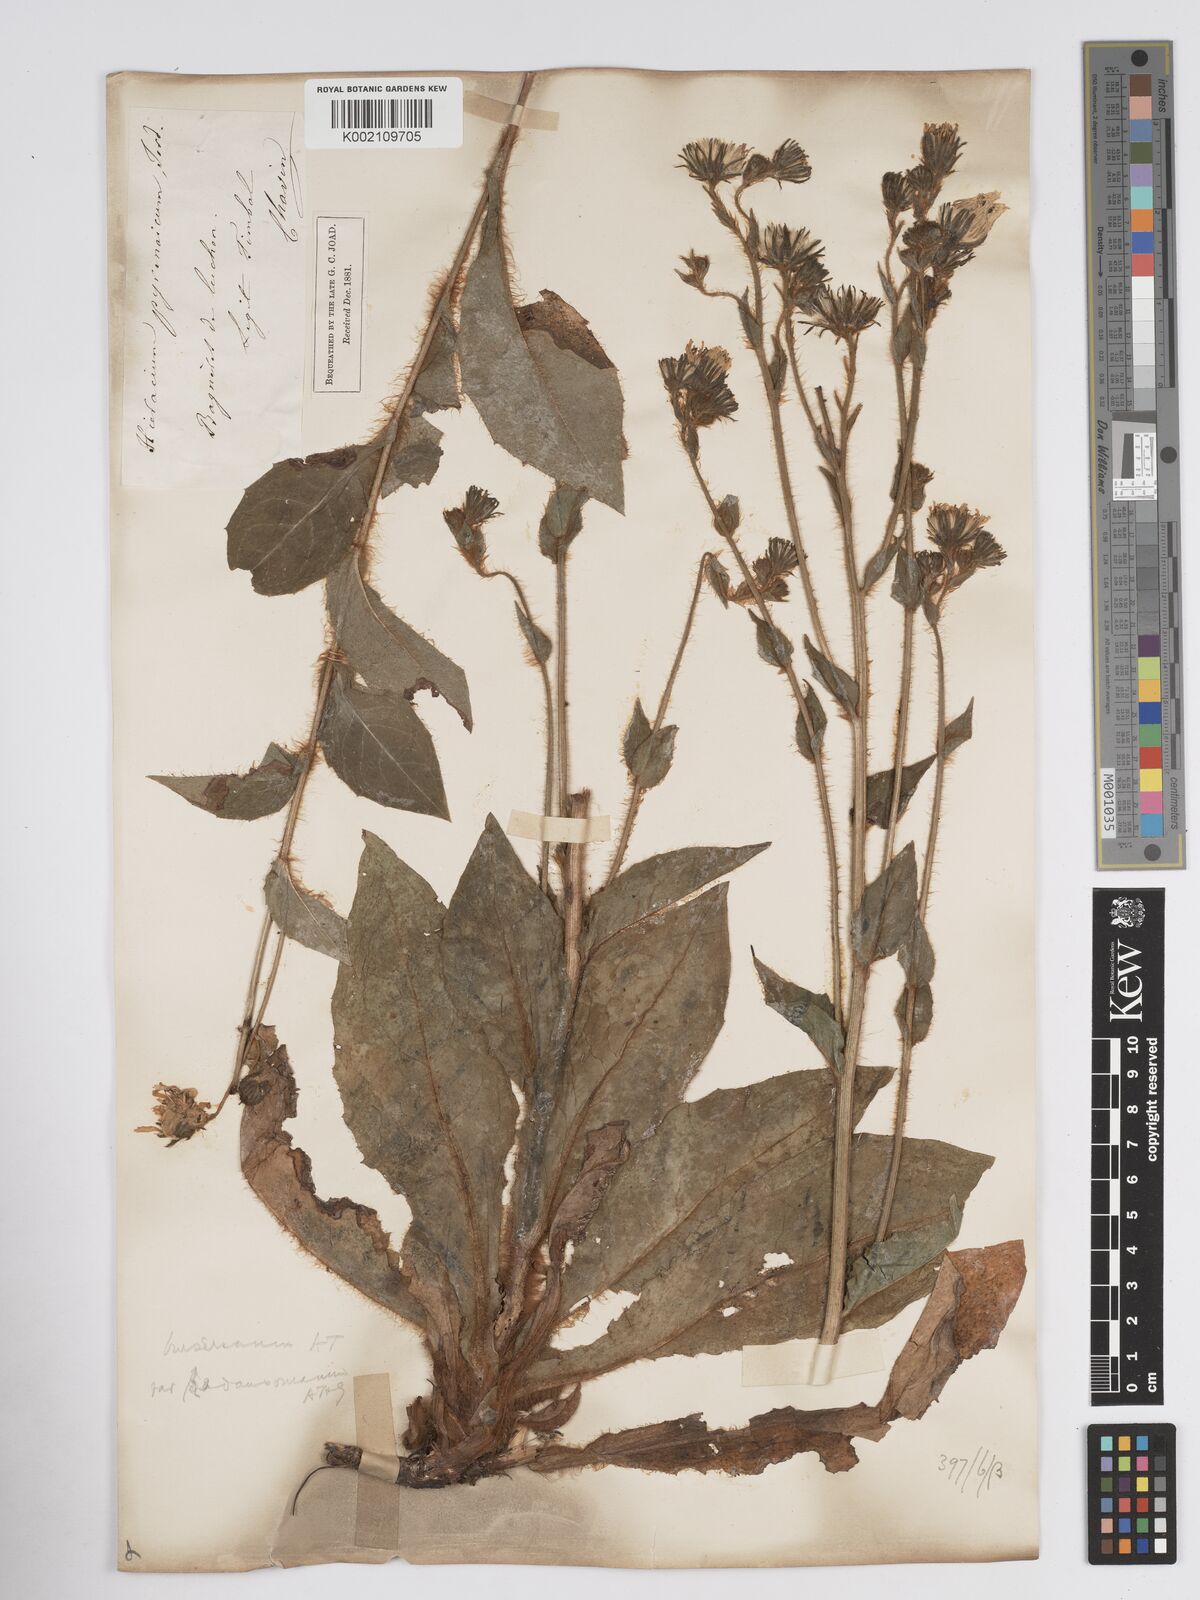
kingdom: Plantae
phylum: Tracheophyta
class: Magnoliopsida
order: Asterales
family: Asteraceae
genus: Crepis
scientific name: Crepis pyrenaica
